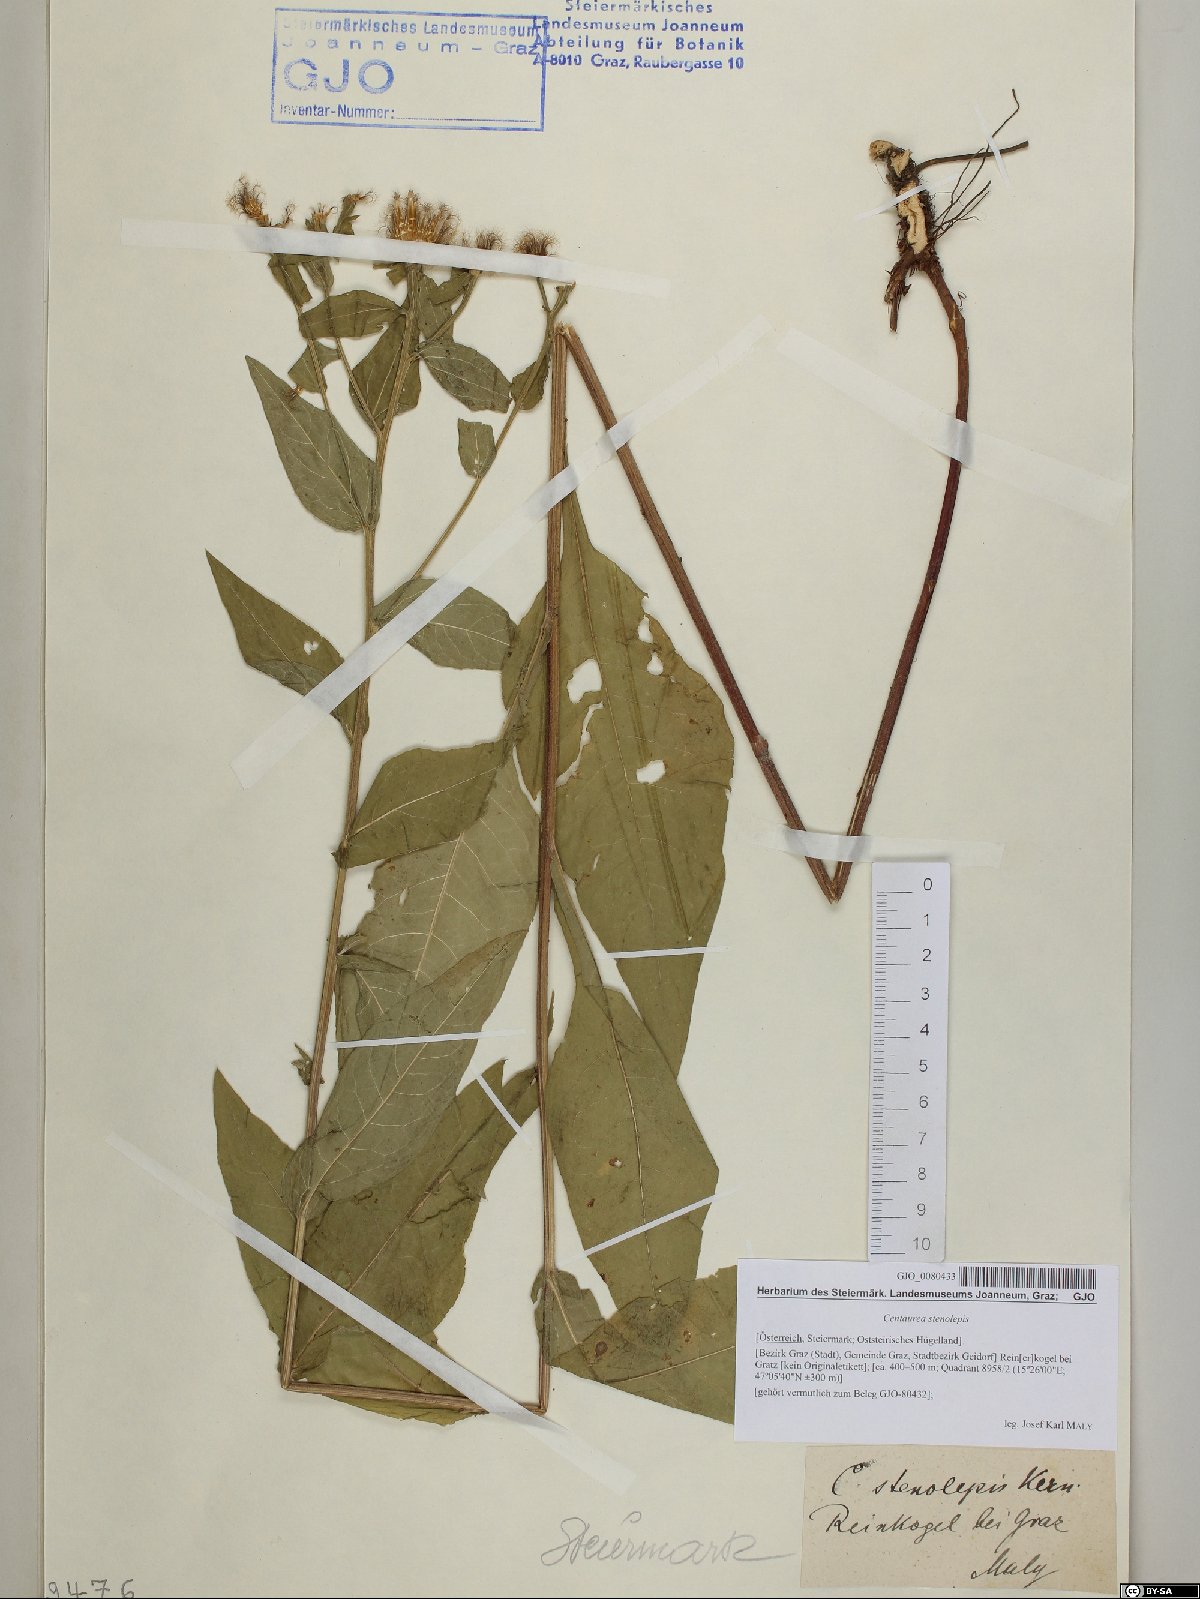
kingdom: Plantae
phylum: Tracheophyta
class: Magnoliopsida
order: Asterales
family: Asteraceae
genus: Centaurea
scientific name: Centaurea stenolepis
